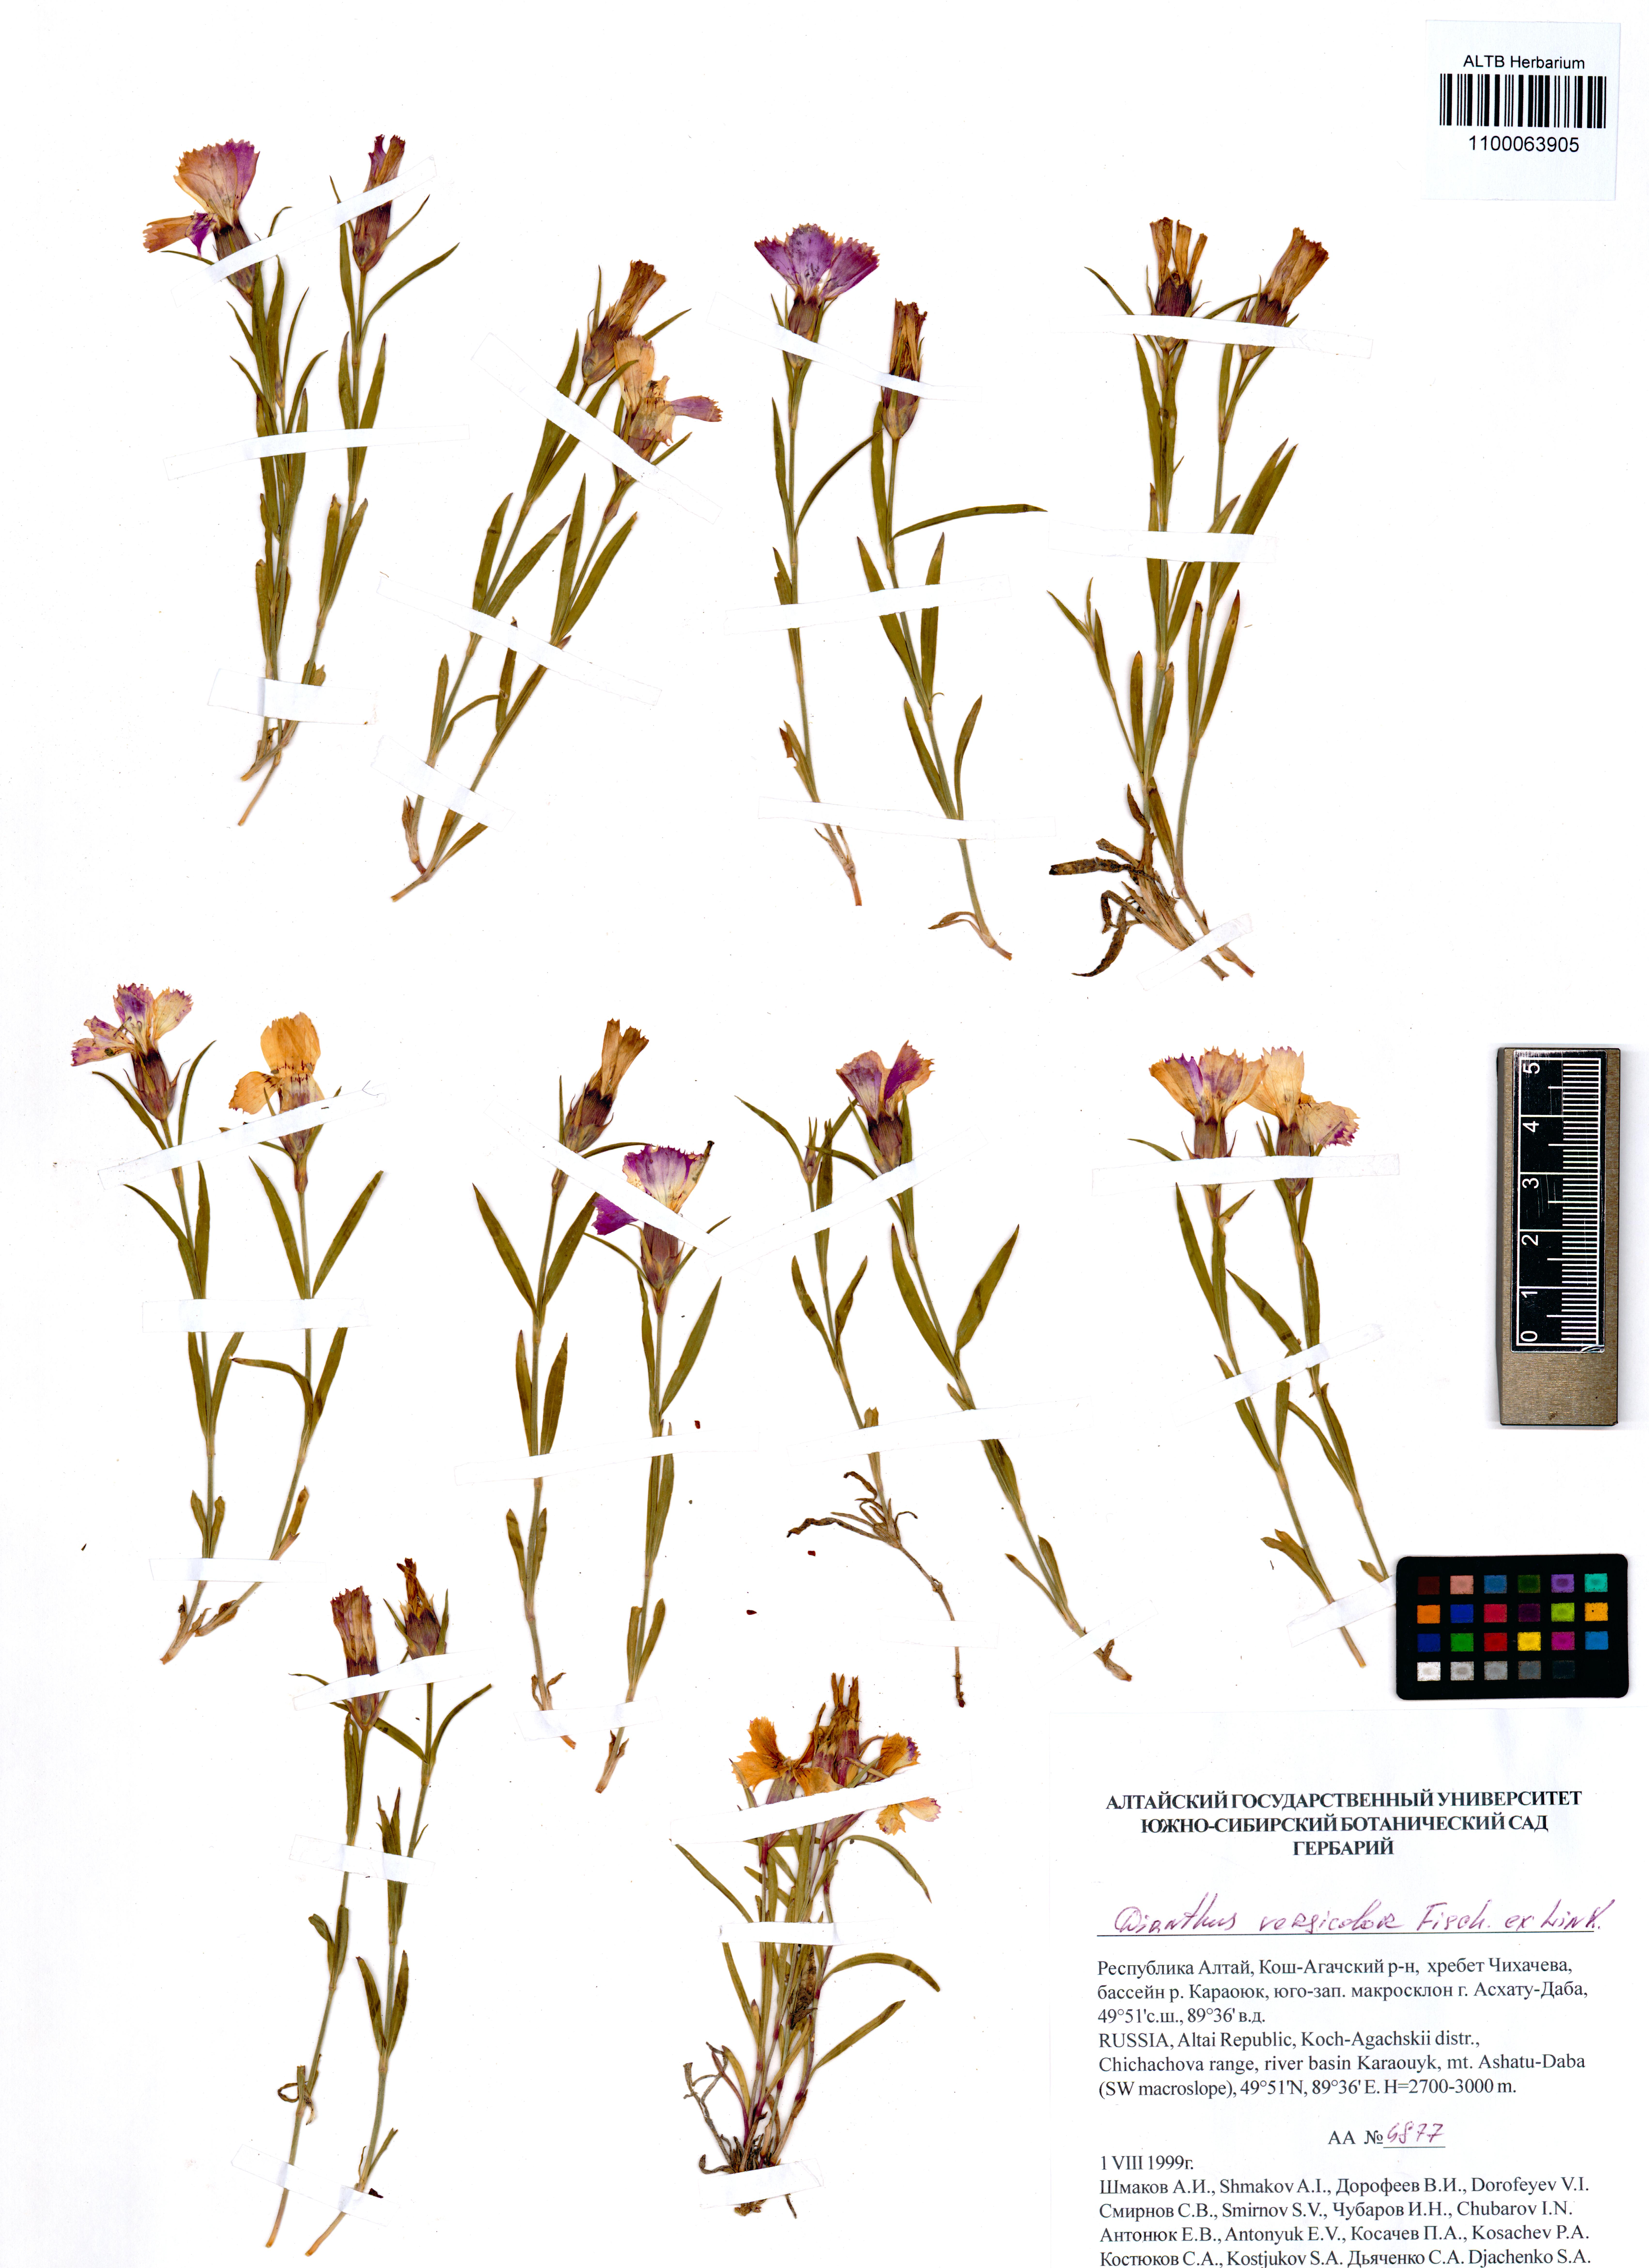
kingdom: Plantae
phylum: Tracheophyta
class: Magnoliopsida
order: Caryophyllales
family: Caryophyllaceae
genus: Dianthus
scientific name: Dianthus chinensis
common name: Rainbow pink
